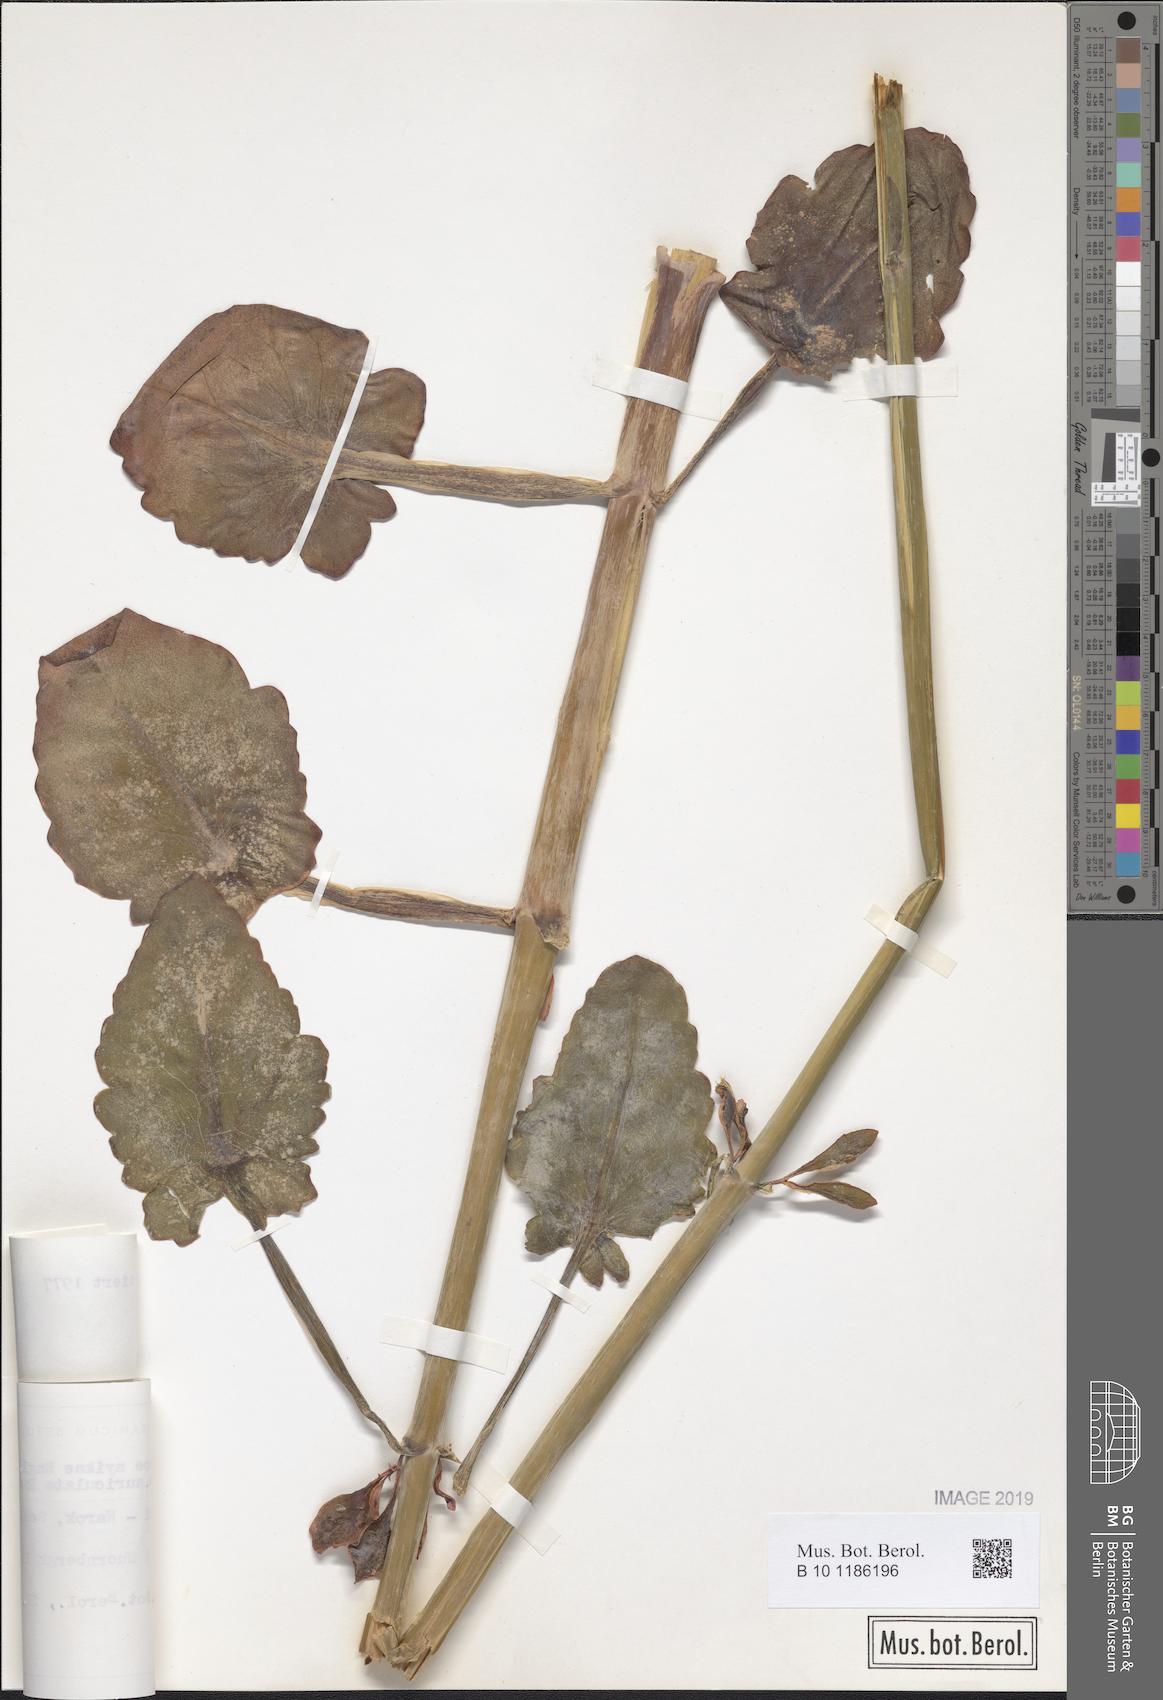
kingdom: Plantae
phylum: Tracheophyta
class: Magnoliopsida
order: Saxifragales
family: Crassulaceae
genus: Kalanchoe
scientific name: Kalanchoe auriculata
